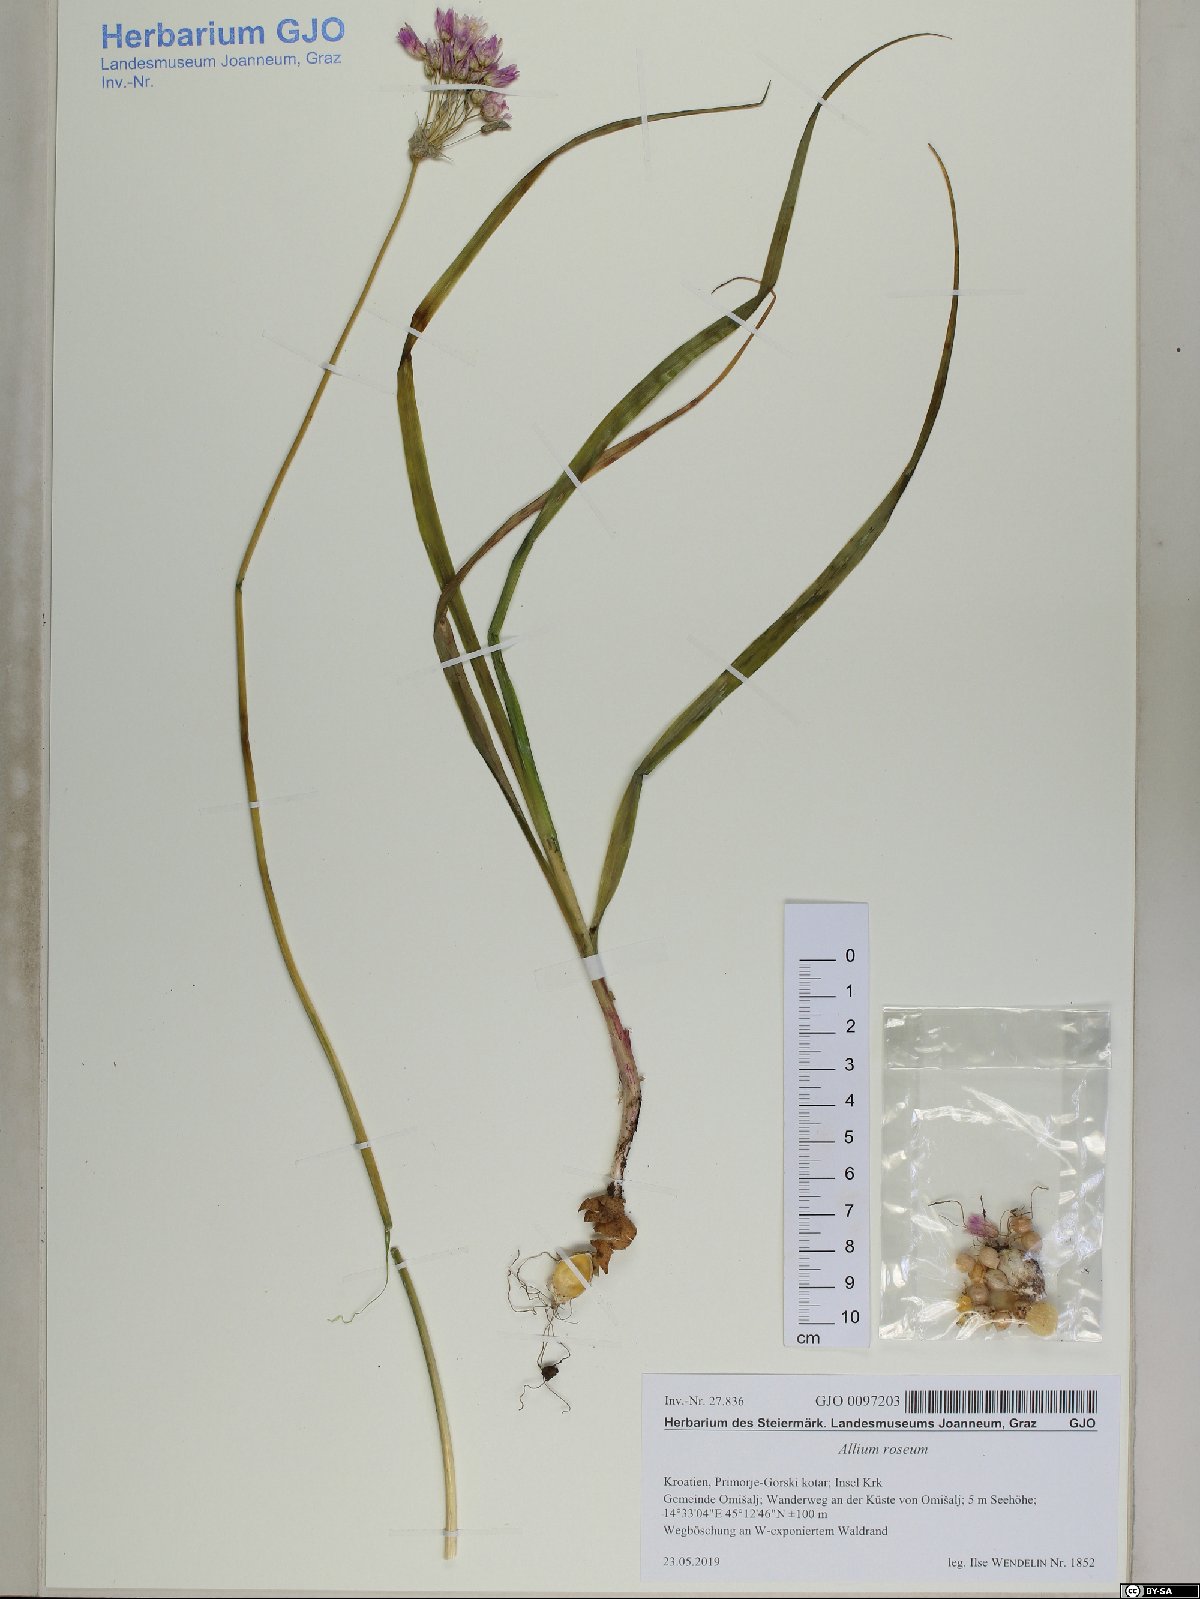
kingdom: Plantae
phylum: Tracheophyta
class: Liliopsida
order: Asparagales
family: Amaryllidaceae
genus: Allium
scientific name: Allium roseum
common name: Rosy garlic
